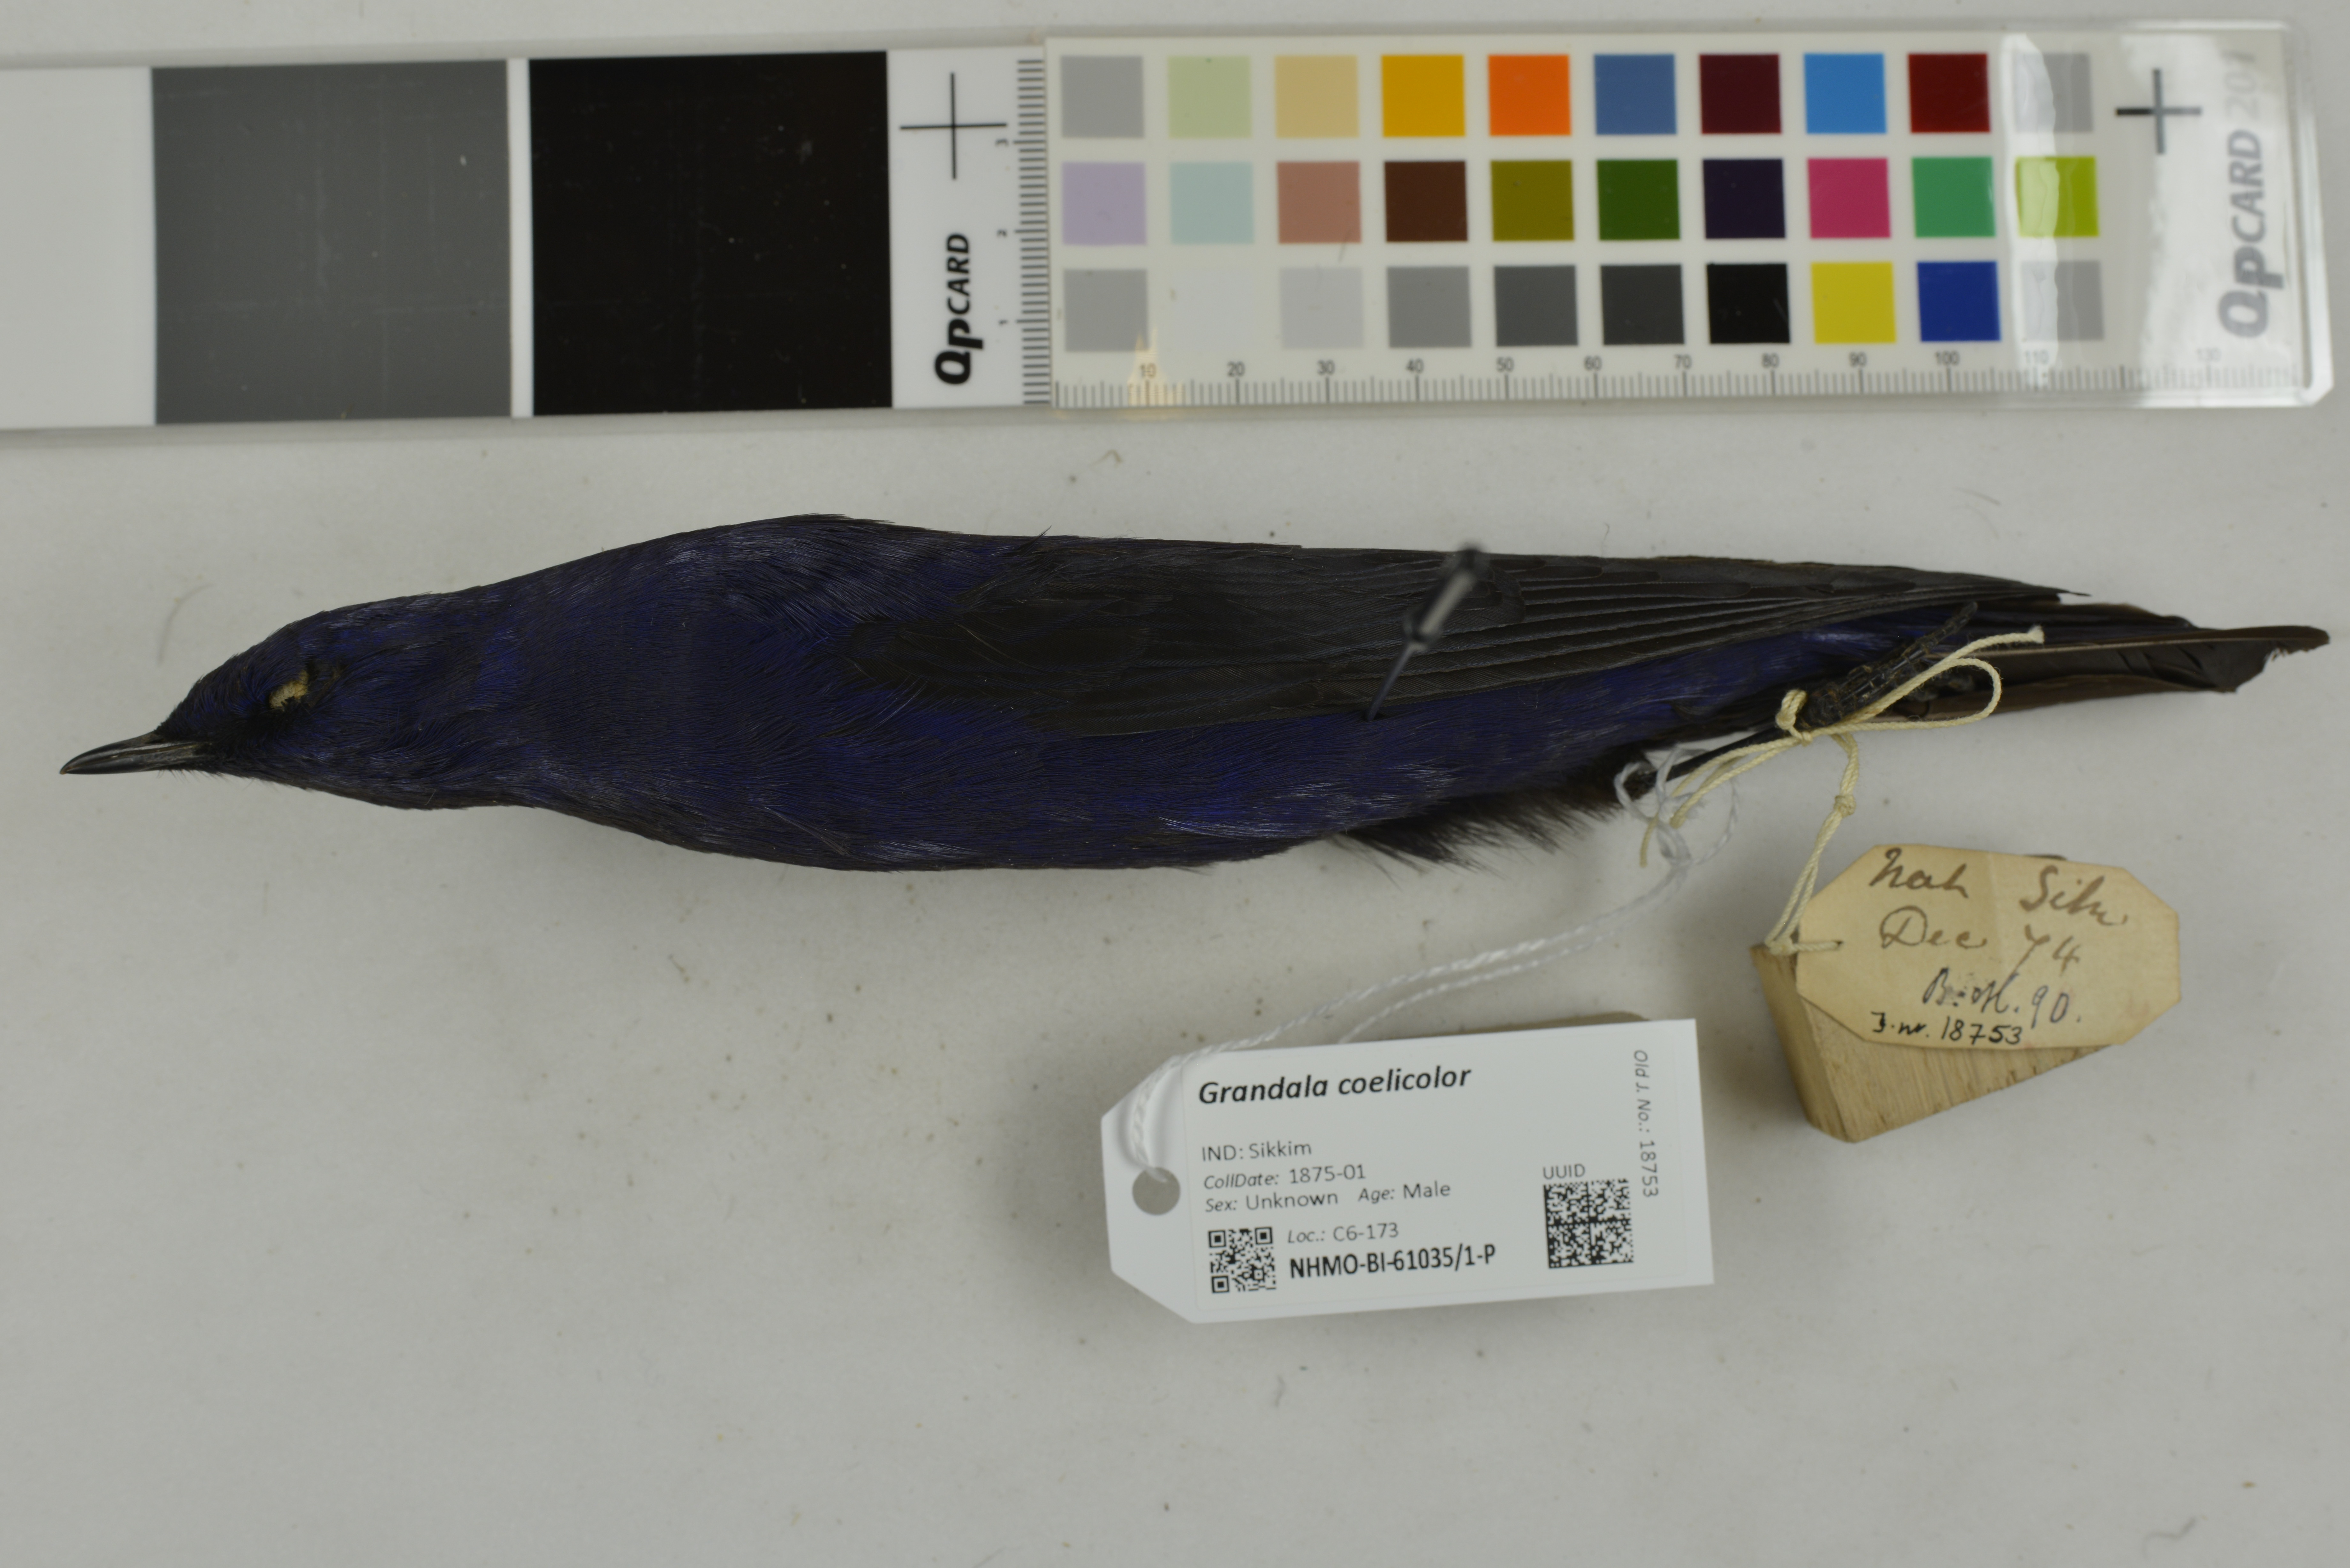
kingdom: Animalia
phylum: Chordata
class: Aves
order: Passeriformes
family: Muscicapidae
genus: Grandala
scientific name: Grandala coelicolor
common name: Grandala
